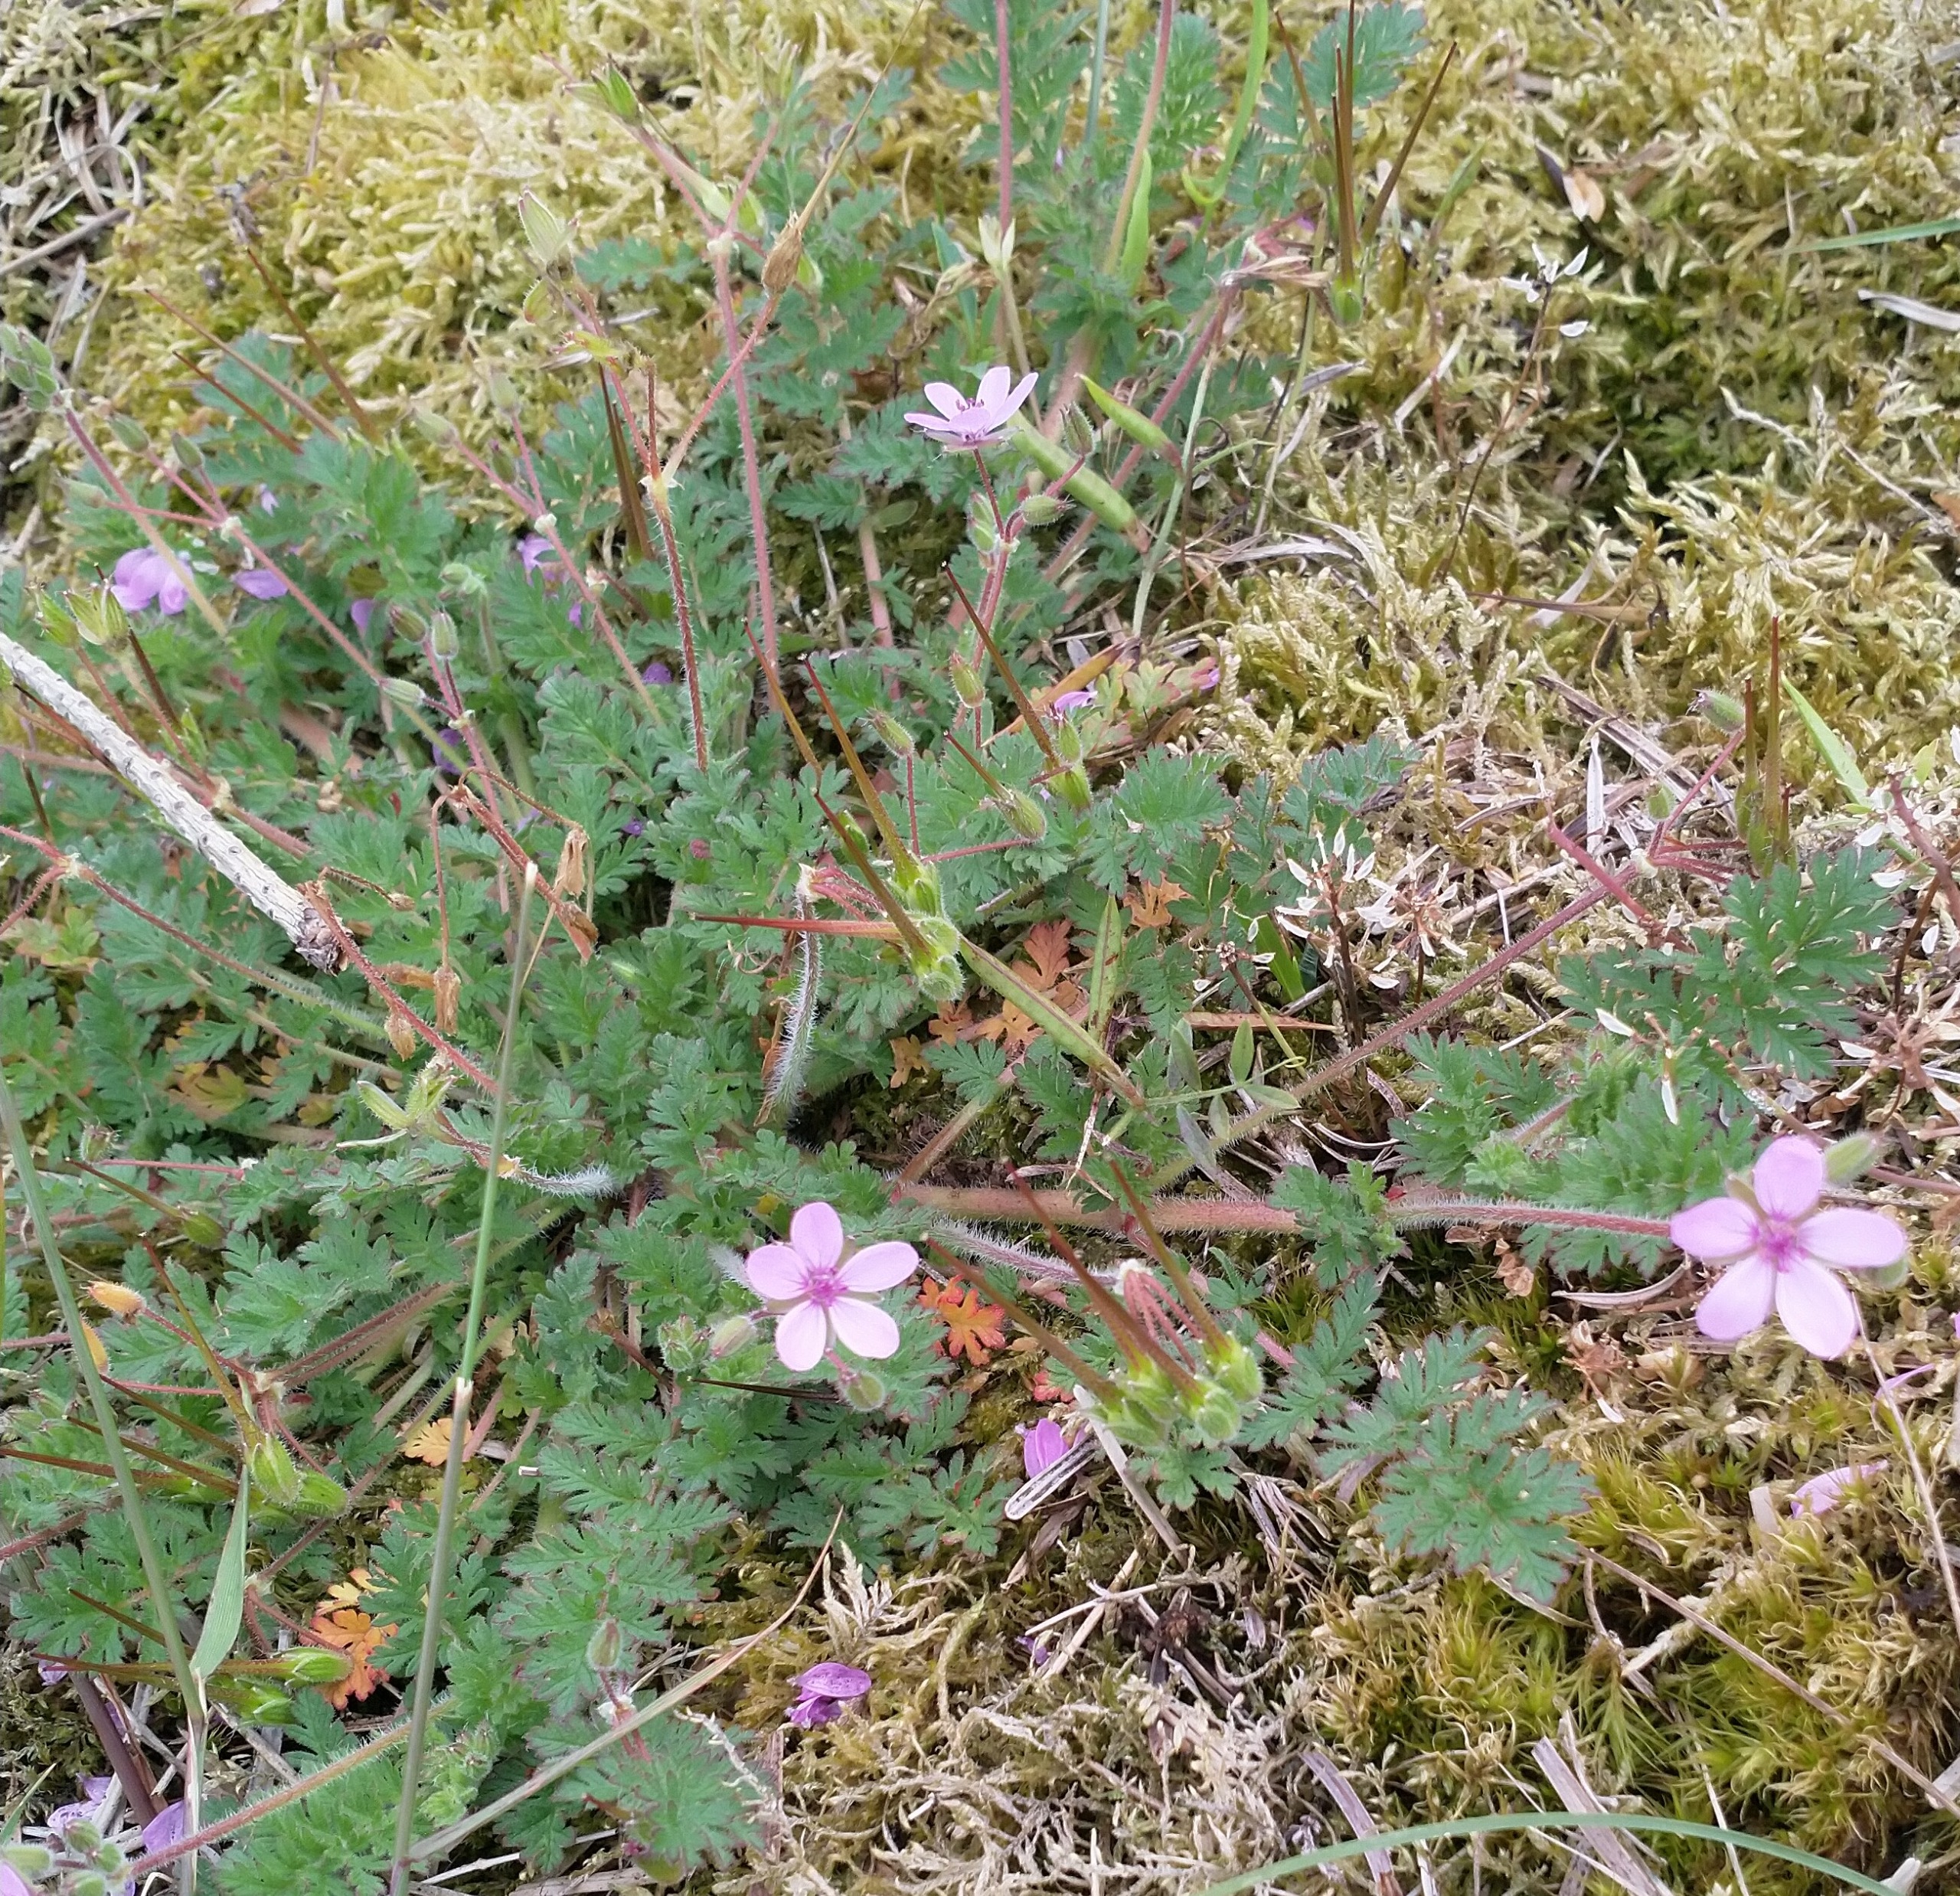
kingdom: Plantae
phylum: Tracheophyta
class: Magnoliopsida
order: Geraniales
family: Geraniaceae
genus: Erodium
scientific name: Erodium cicutarium
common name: Hejrenæb
